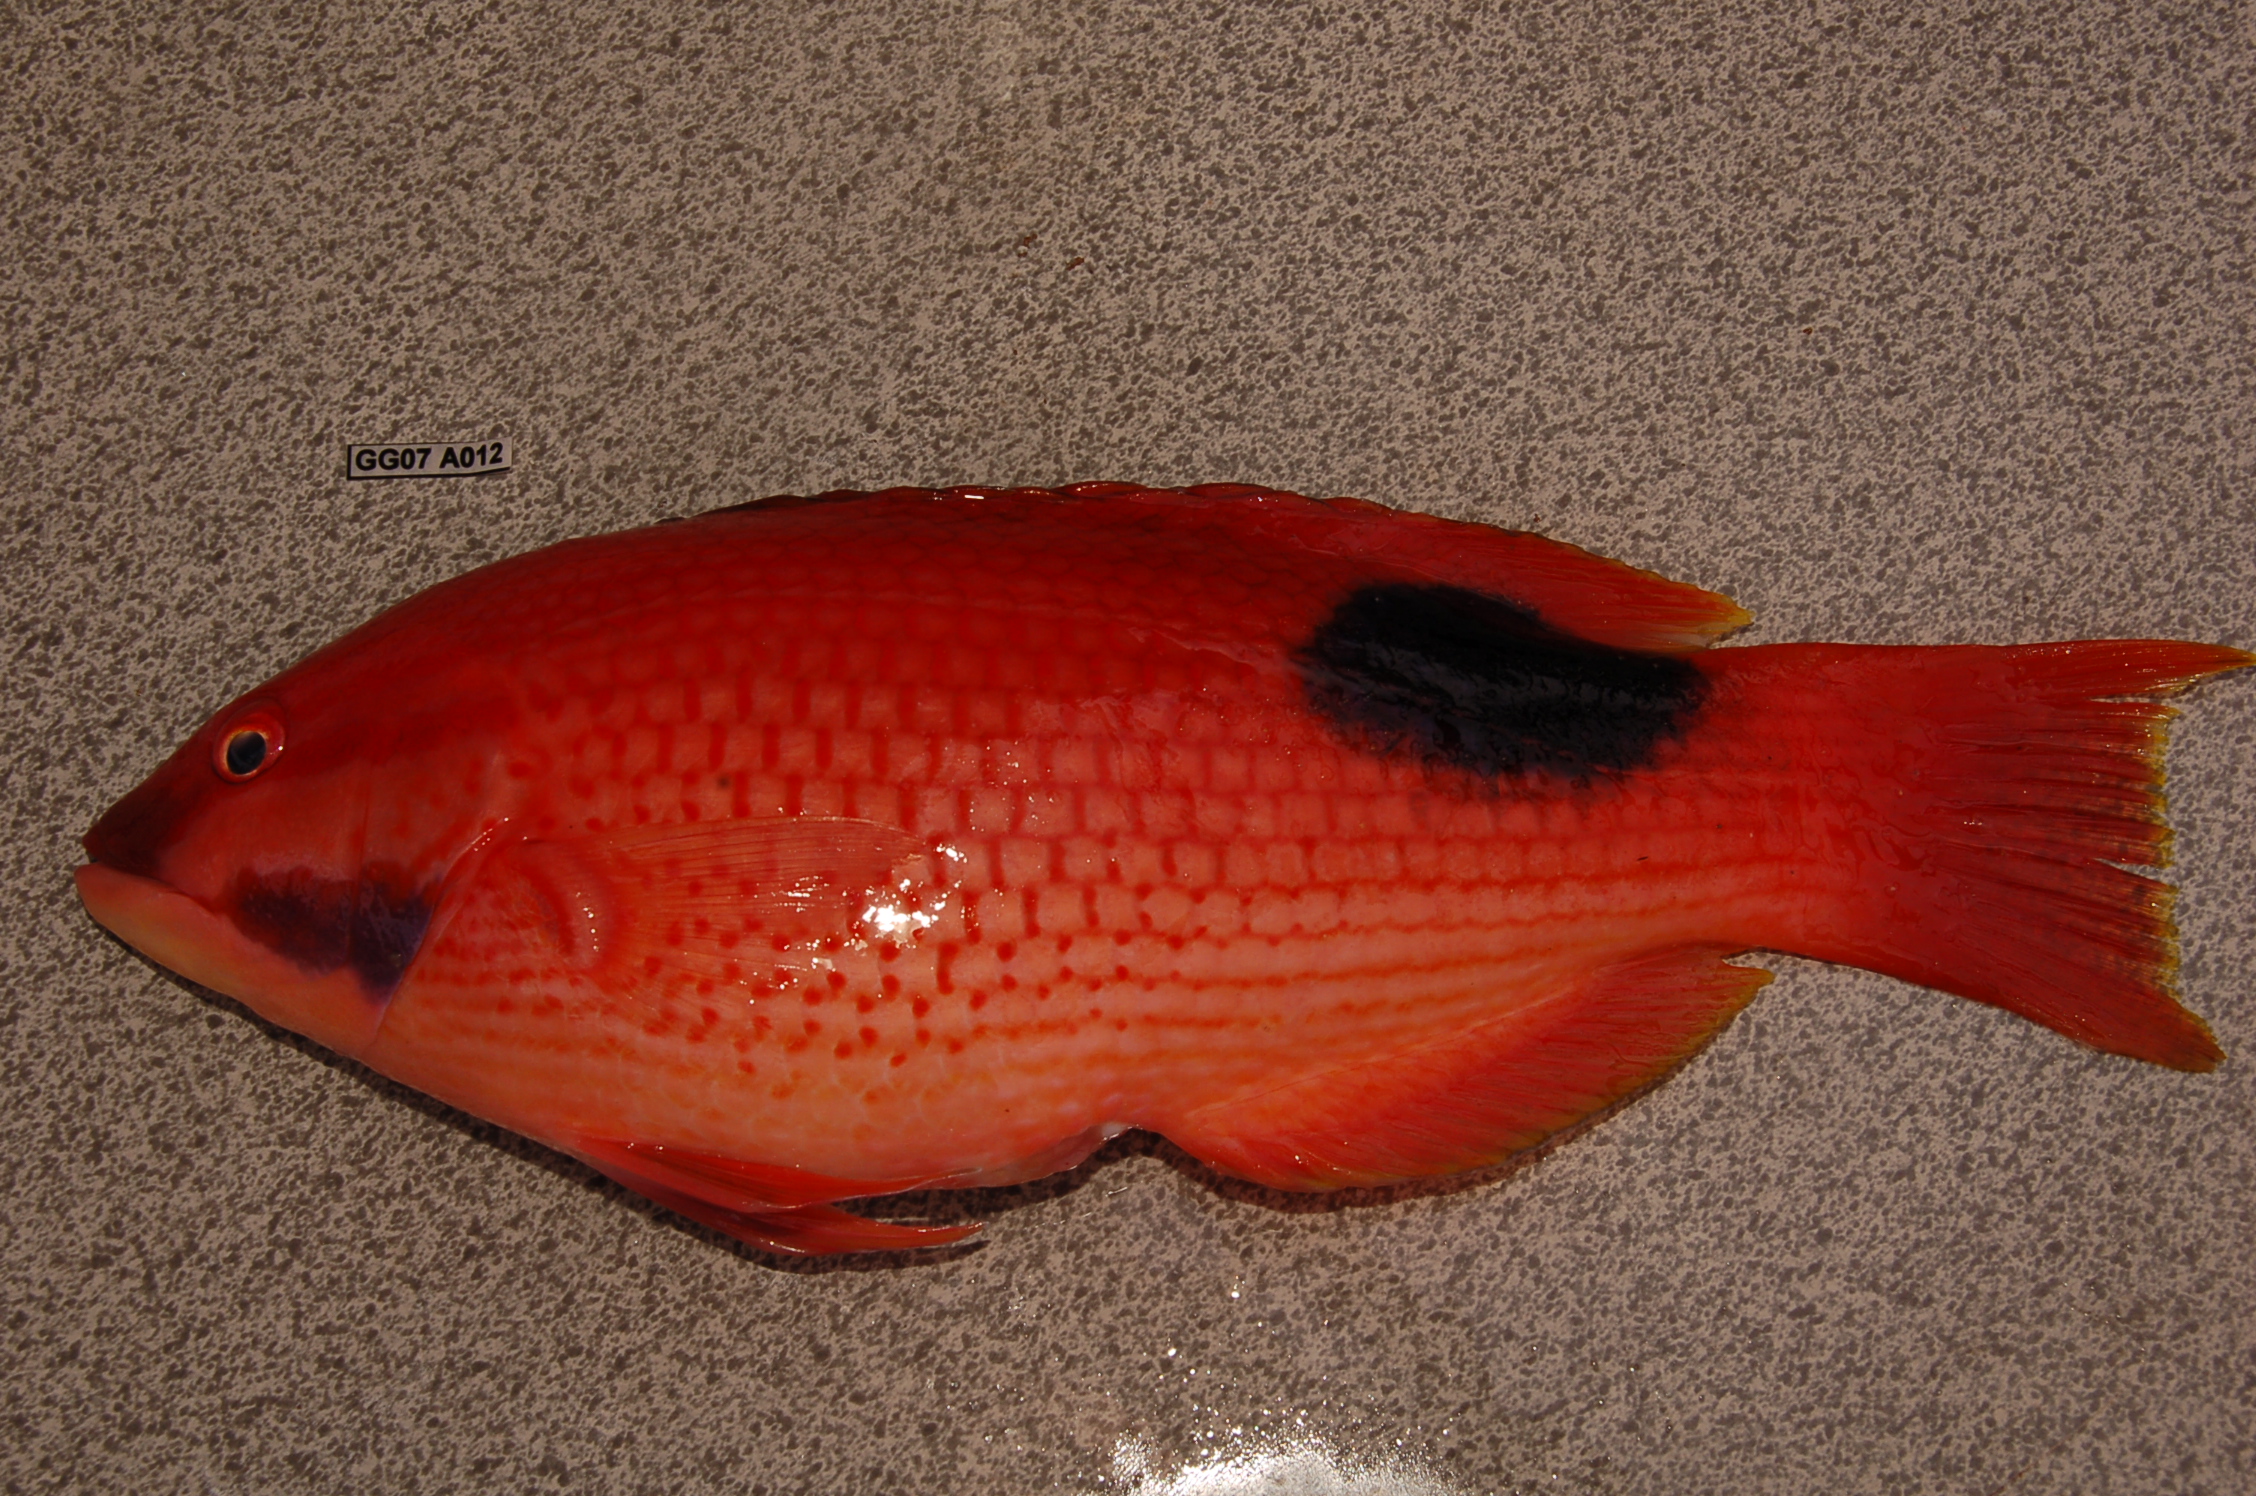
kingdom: Animalia
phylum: Chordata
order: Perciformes
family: Labridae
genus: Bodianus
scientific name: Bodianus bilunulatus
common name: Tarry hogfish
